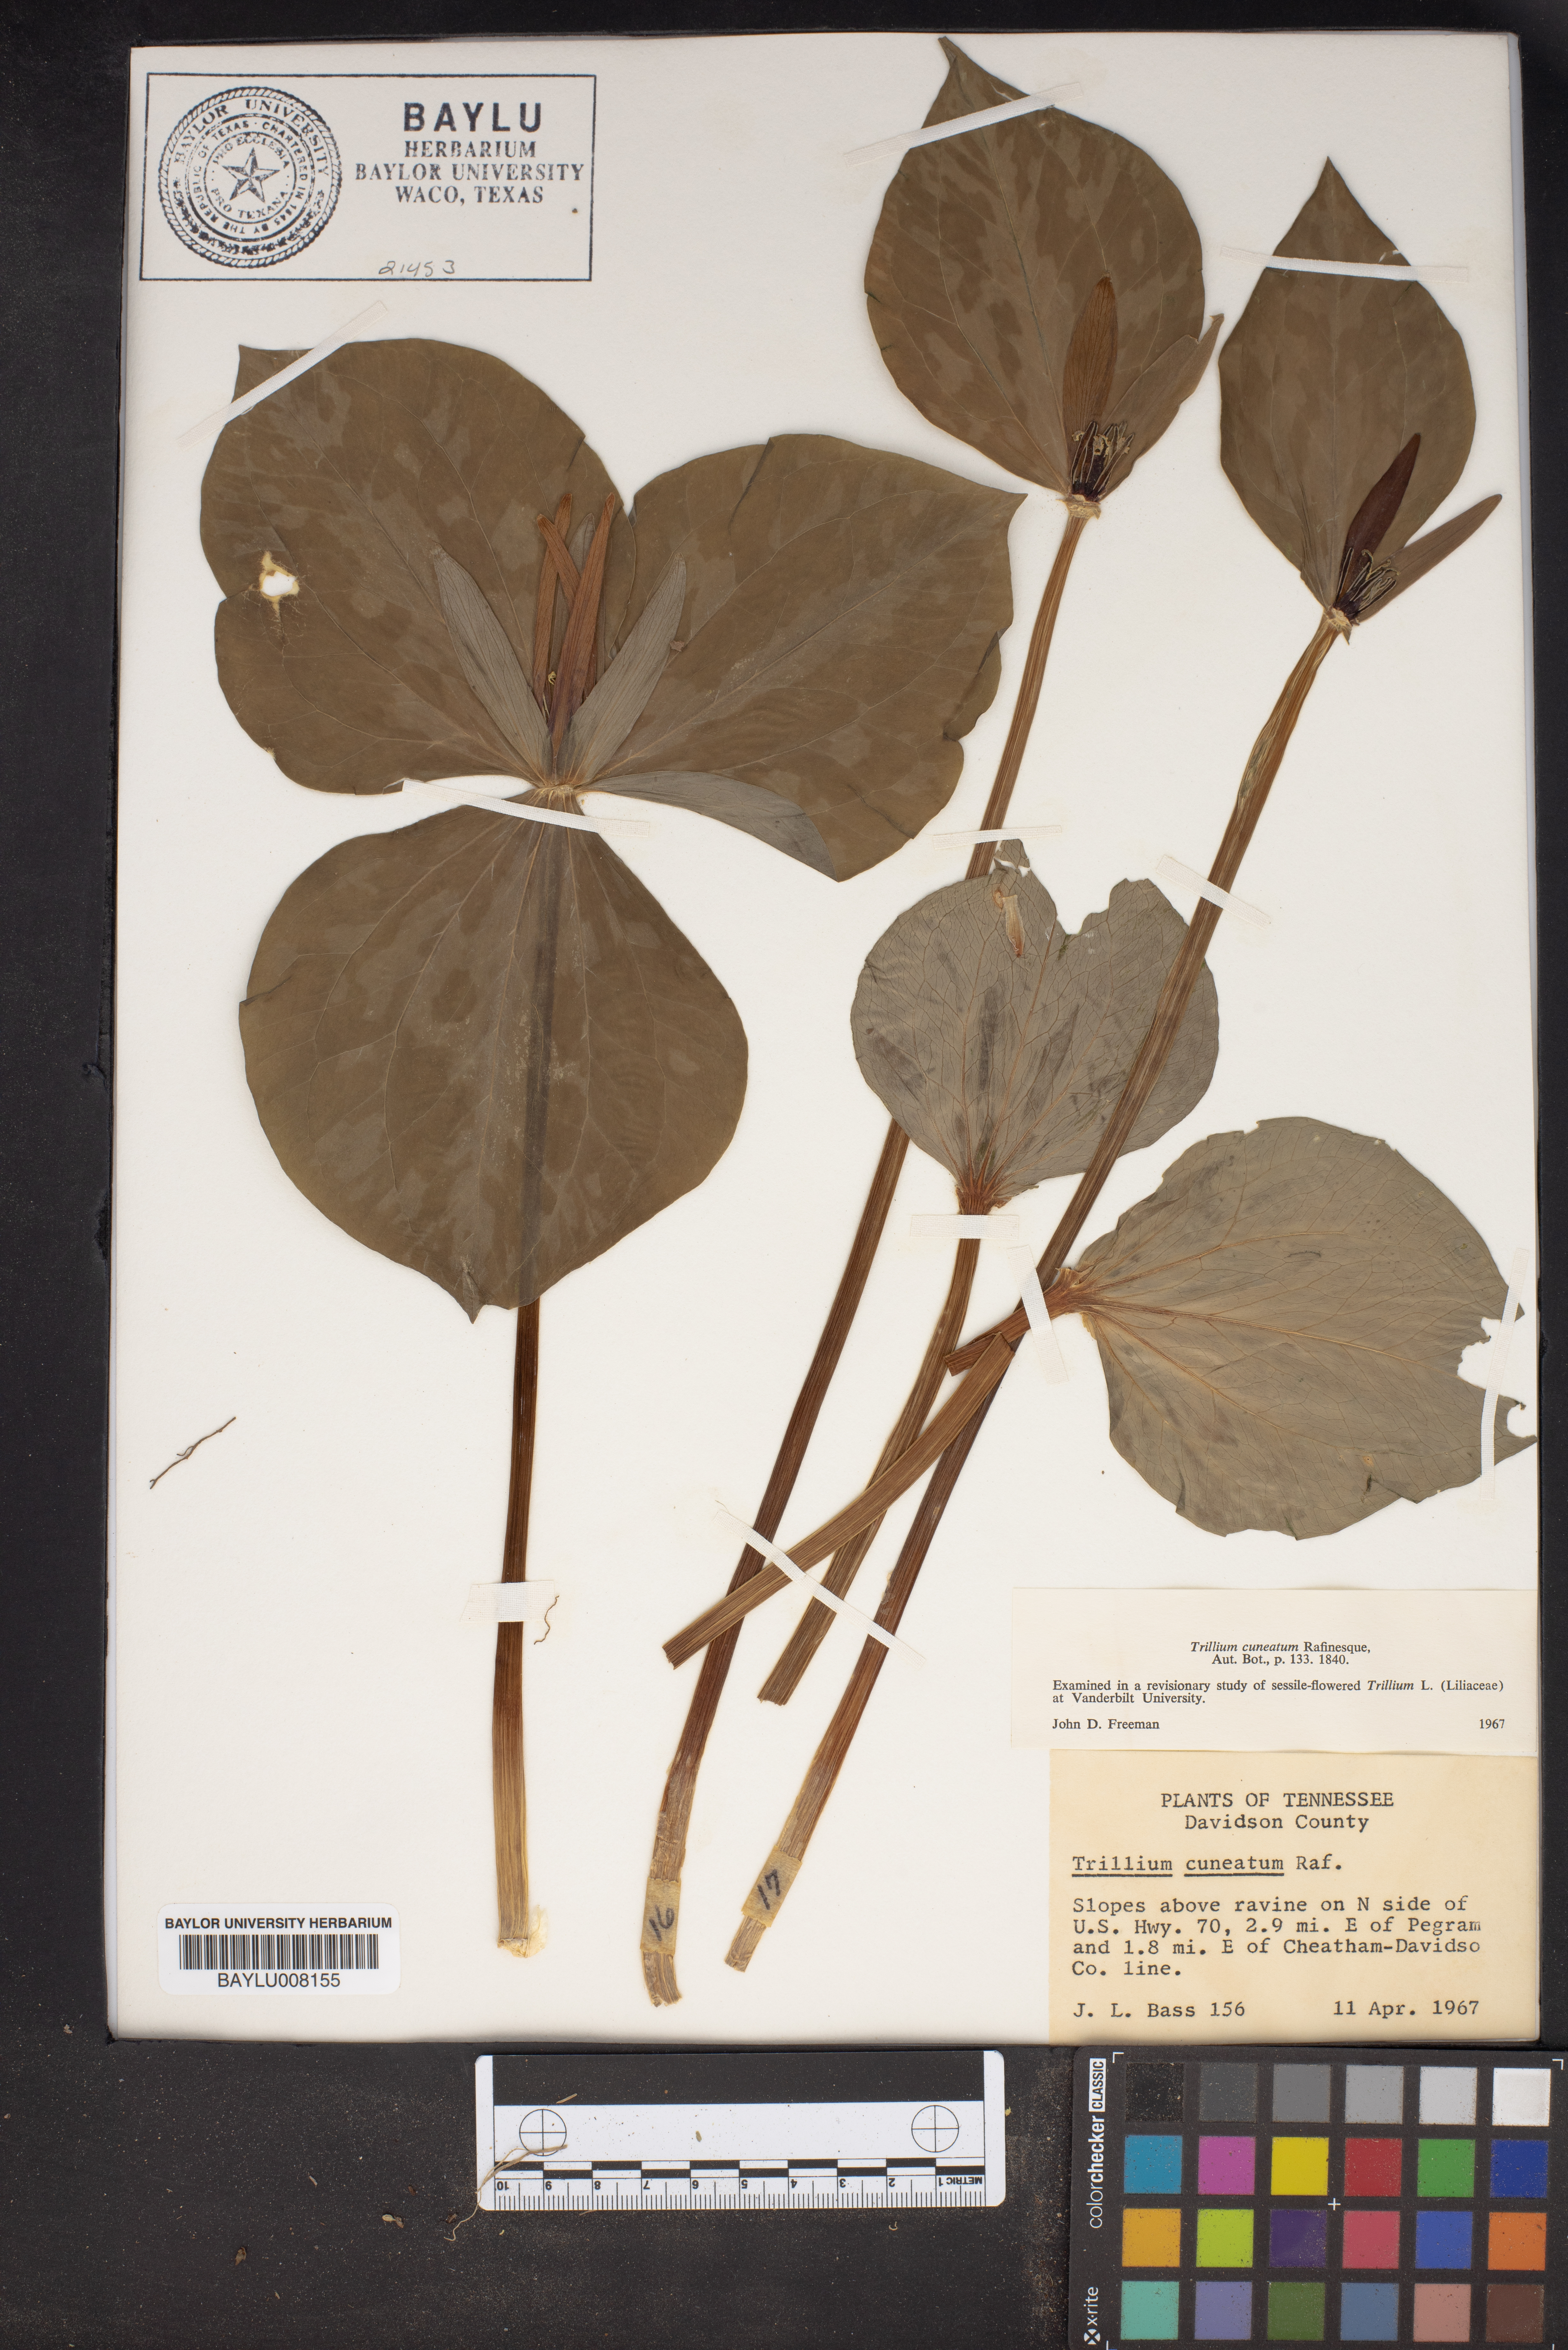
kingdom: Plantae
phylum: Tracheophyta
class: Liliopsida
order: Liliales
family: Melanthiaceae
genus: Trillium
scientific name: Trillium cuneatum
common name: Cuneate trillium
